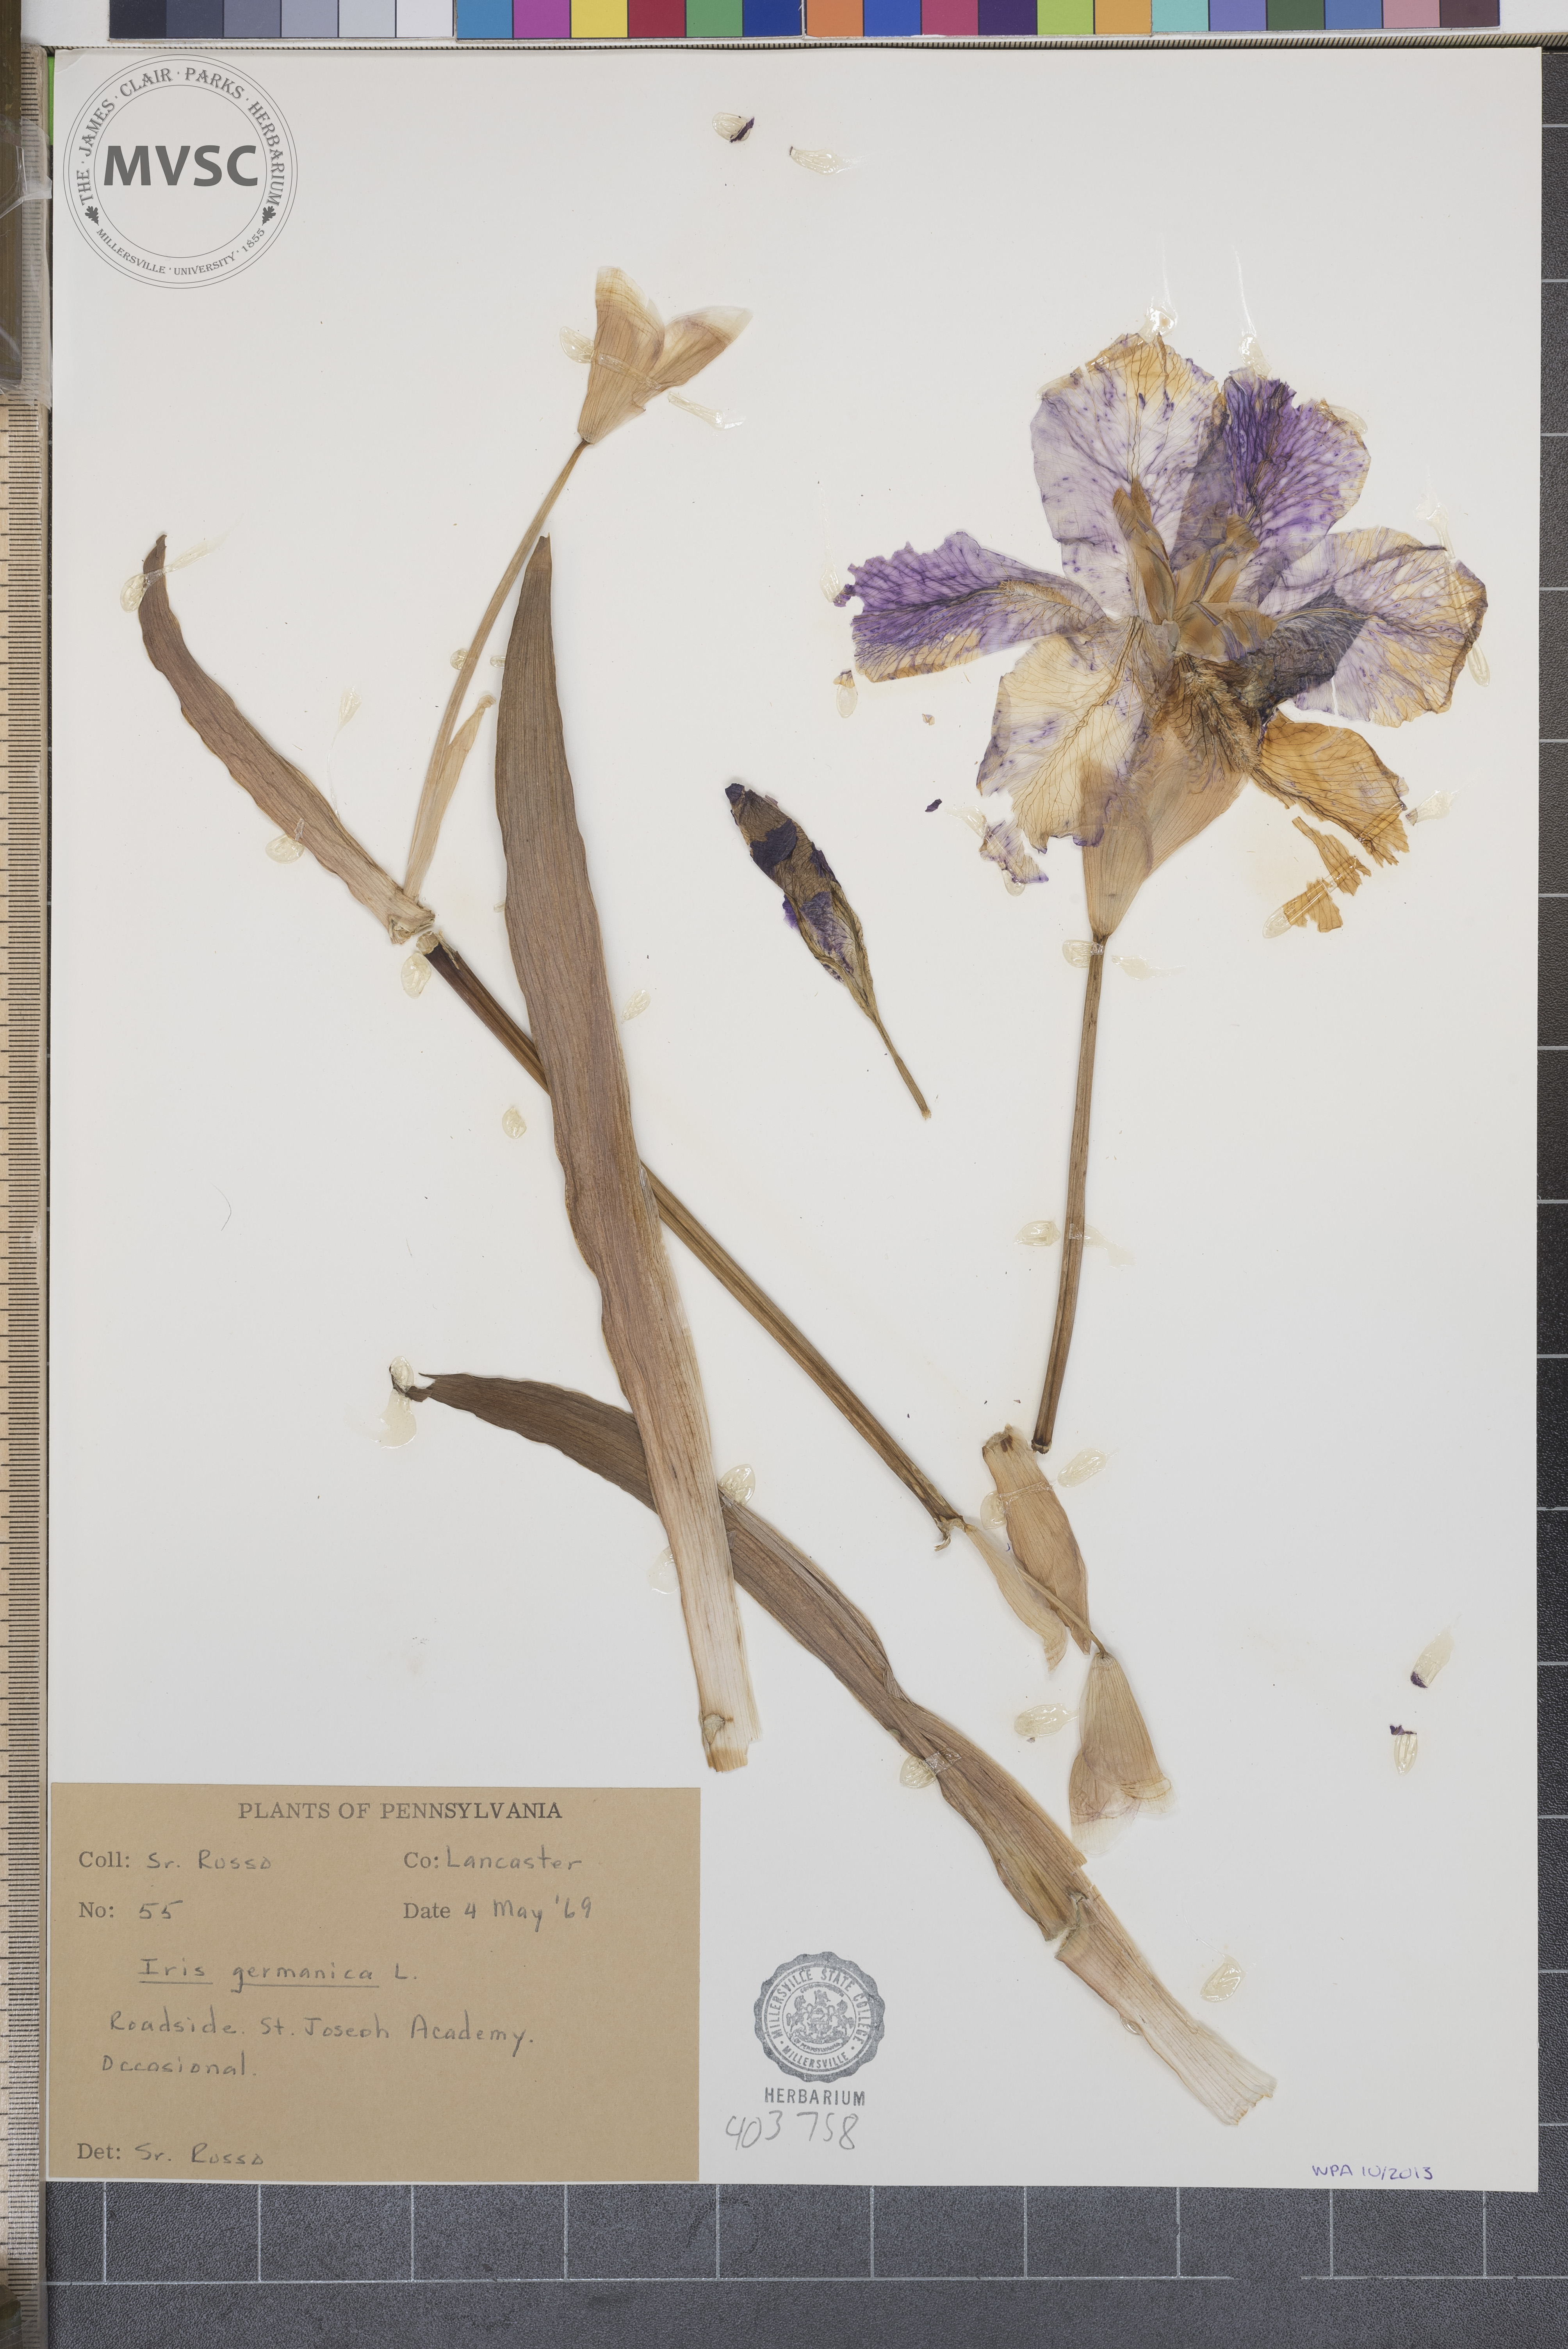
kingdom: Plantae
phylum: Tracheophyta
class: Liliopsida
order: Asparagales
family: Iridaceae
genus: Iris
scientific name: Iris germanica
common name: German iris
